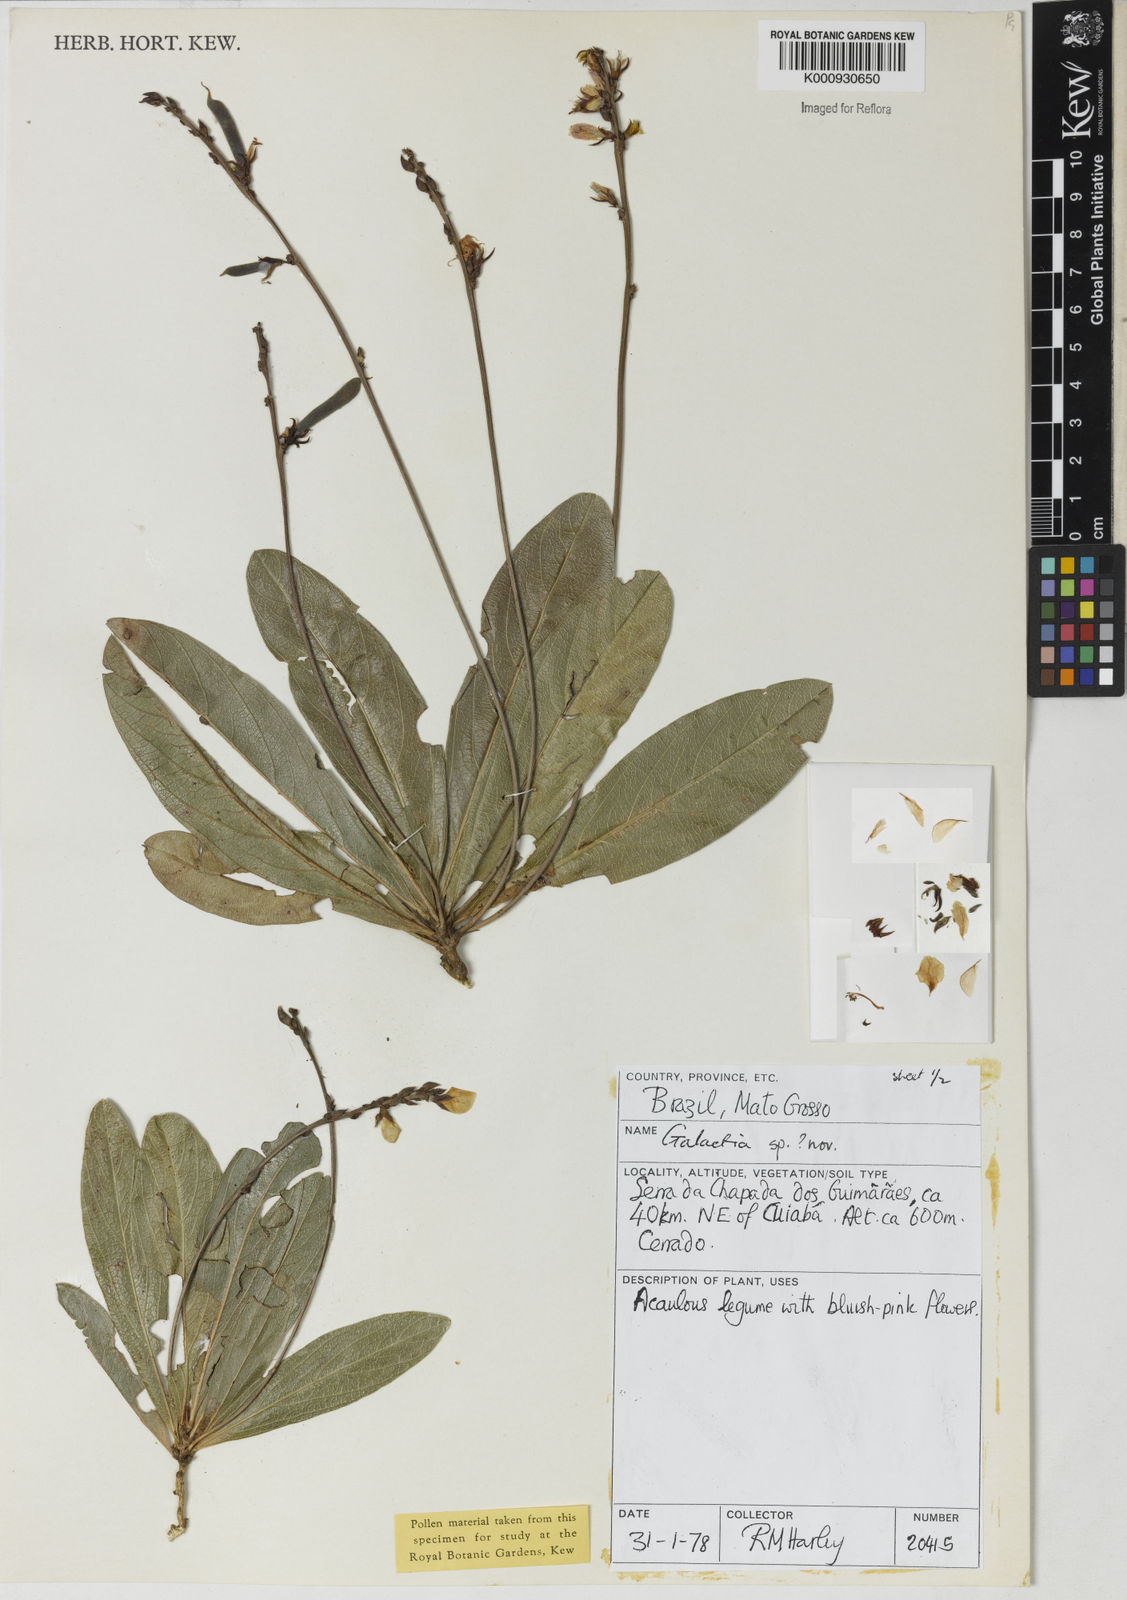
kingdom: Plantae
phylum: Tracheophyta
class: Magnoliopsida
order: Fabales
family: Fabaceae
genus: Galactia
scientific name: Galactia
